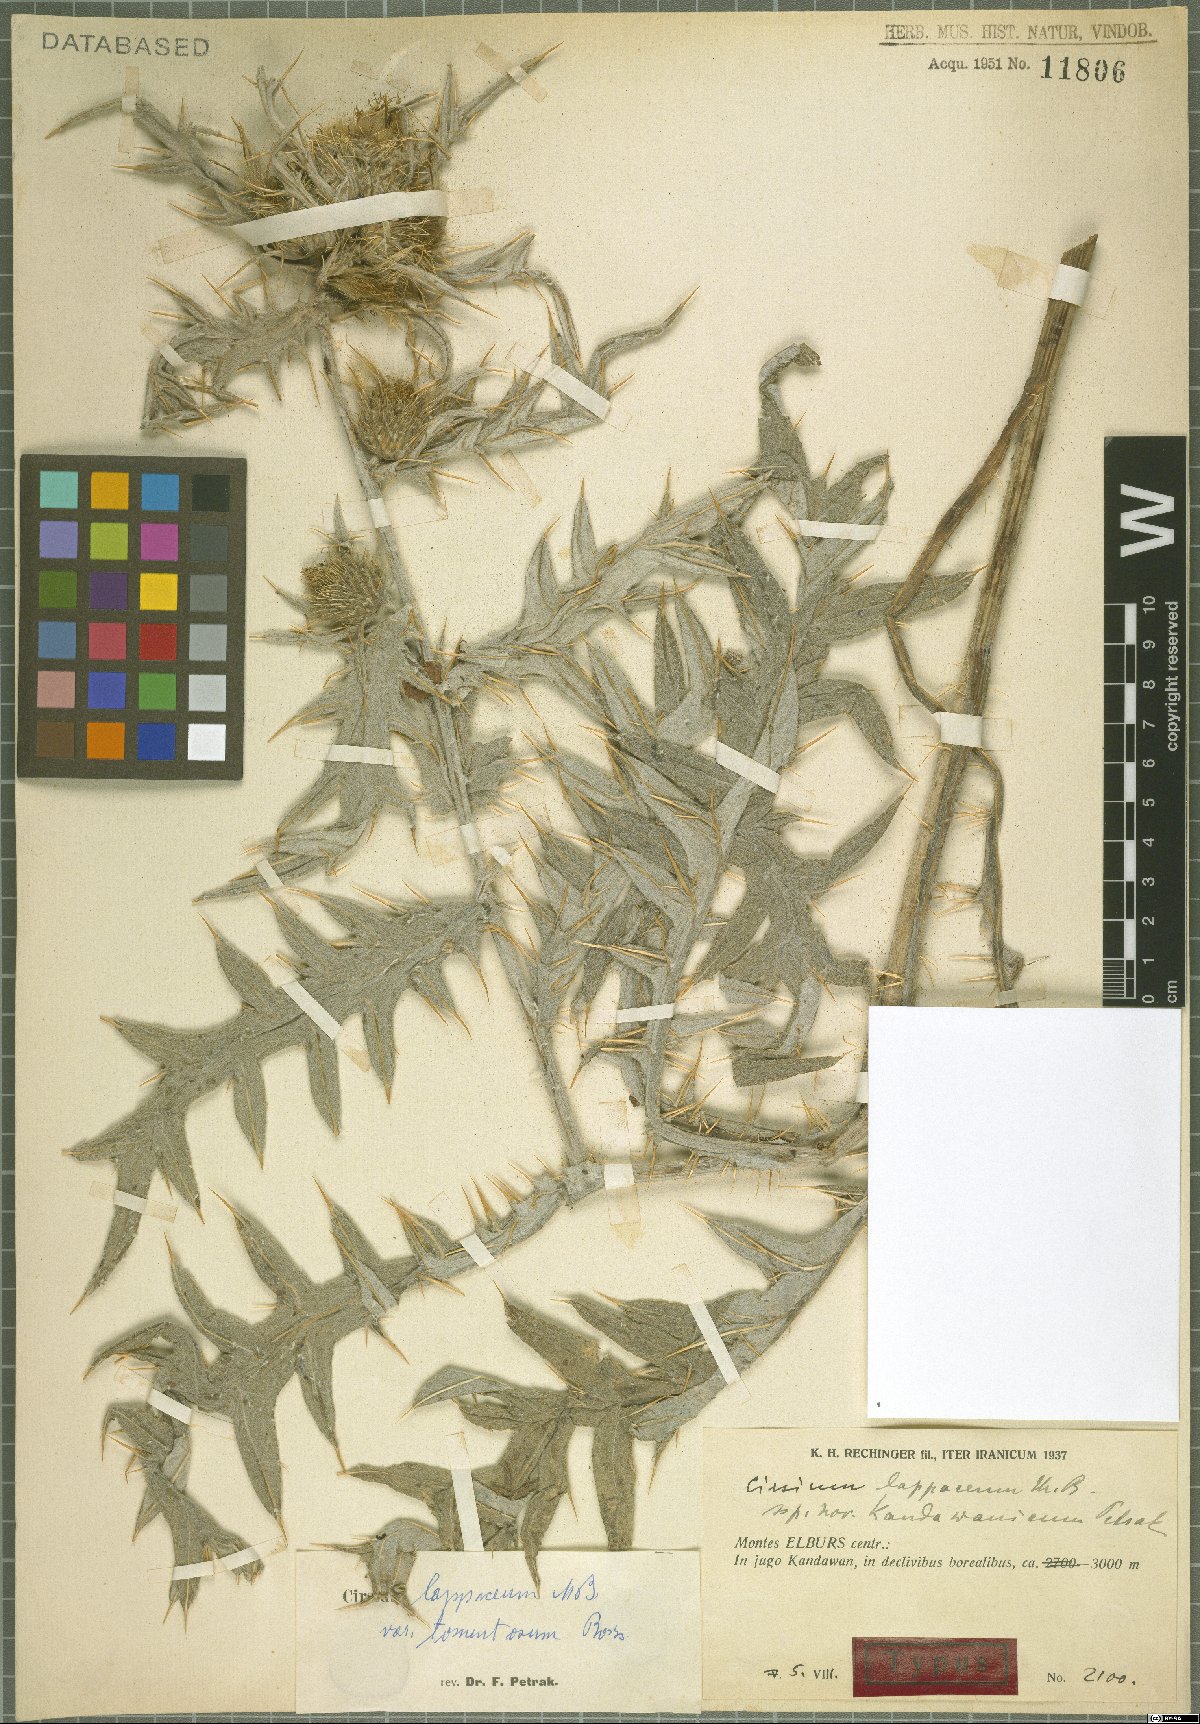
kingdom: Plantae
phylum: Tracheophyta
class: Magnoliopsida
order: Asterales
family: Asteraceae
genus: Lophiolepis
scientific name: Lophiolepis lappacea
